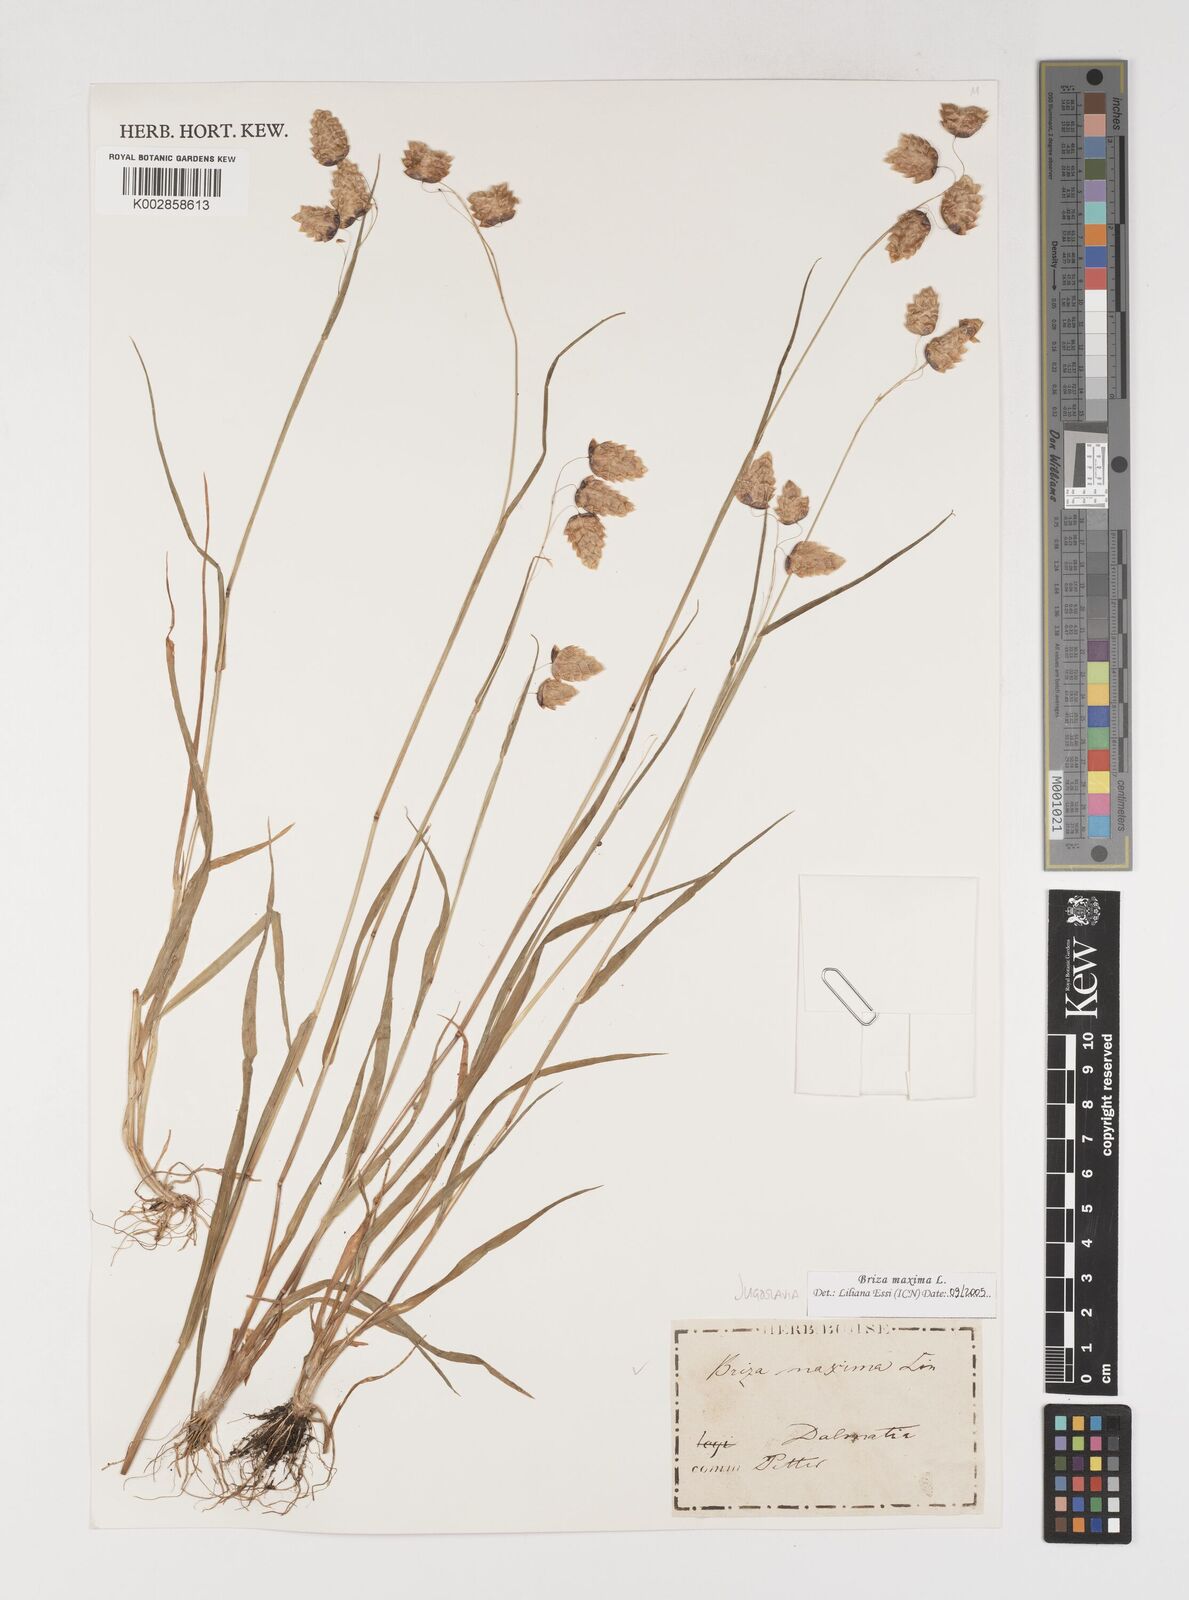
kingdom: Plantae
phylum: Tracheophyta
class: Liliopsida
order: Poales
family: Poaceae
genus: Briza
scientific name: Briza maxima
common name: Big quakinggrass
